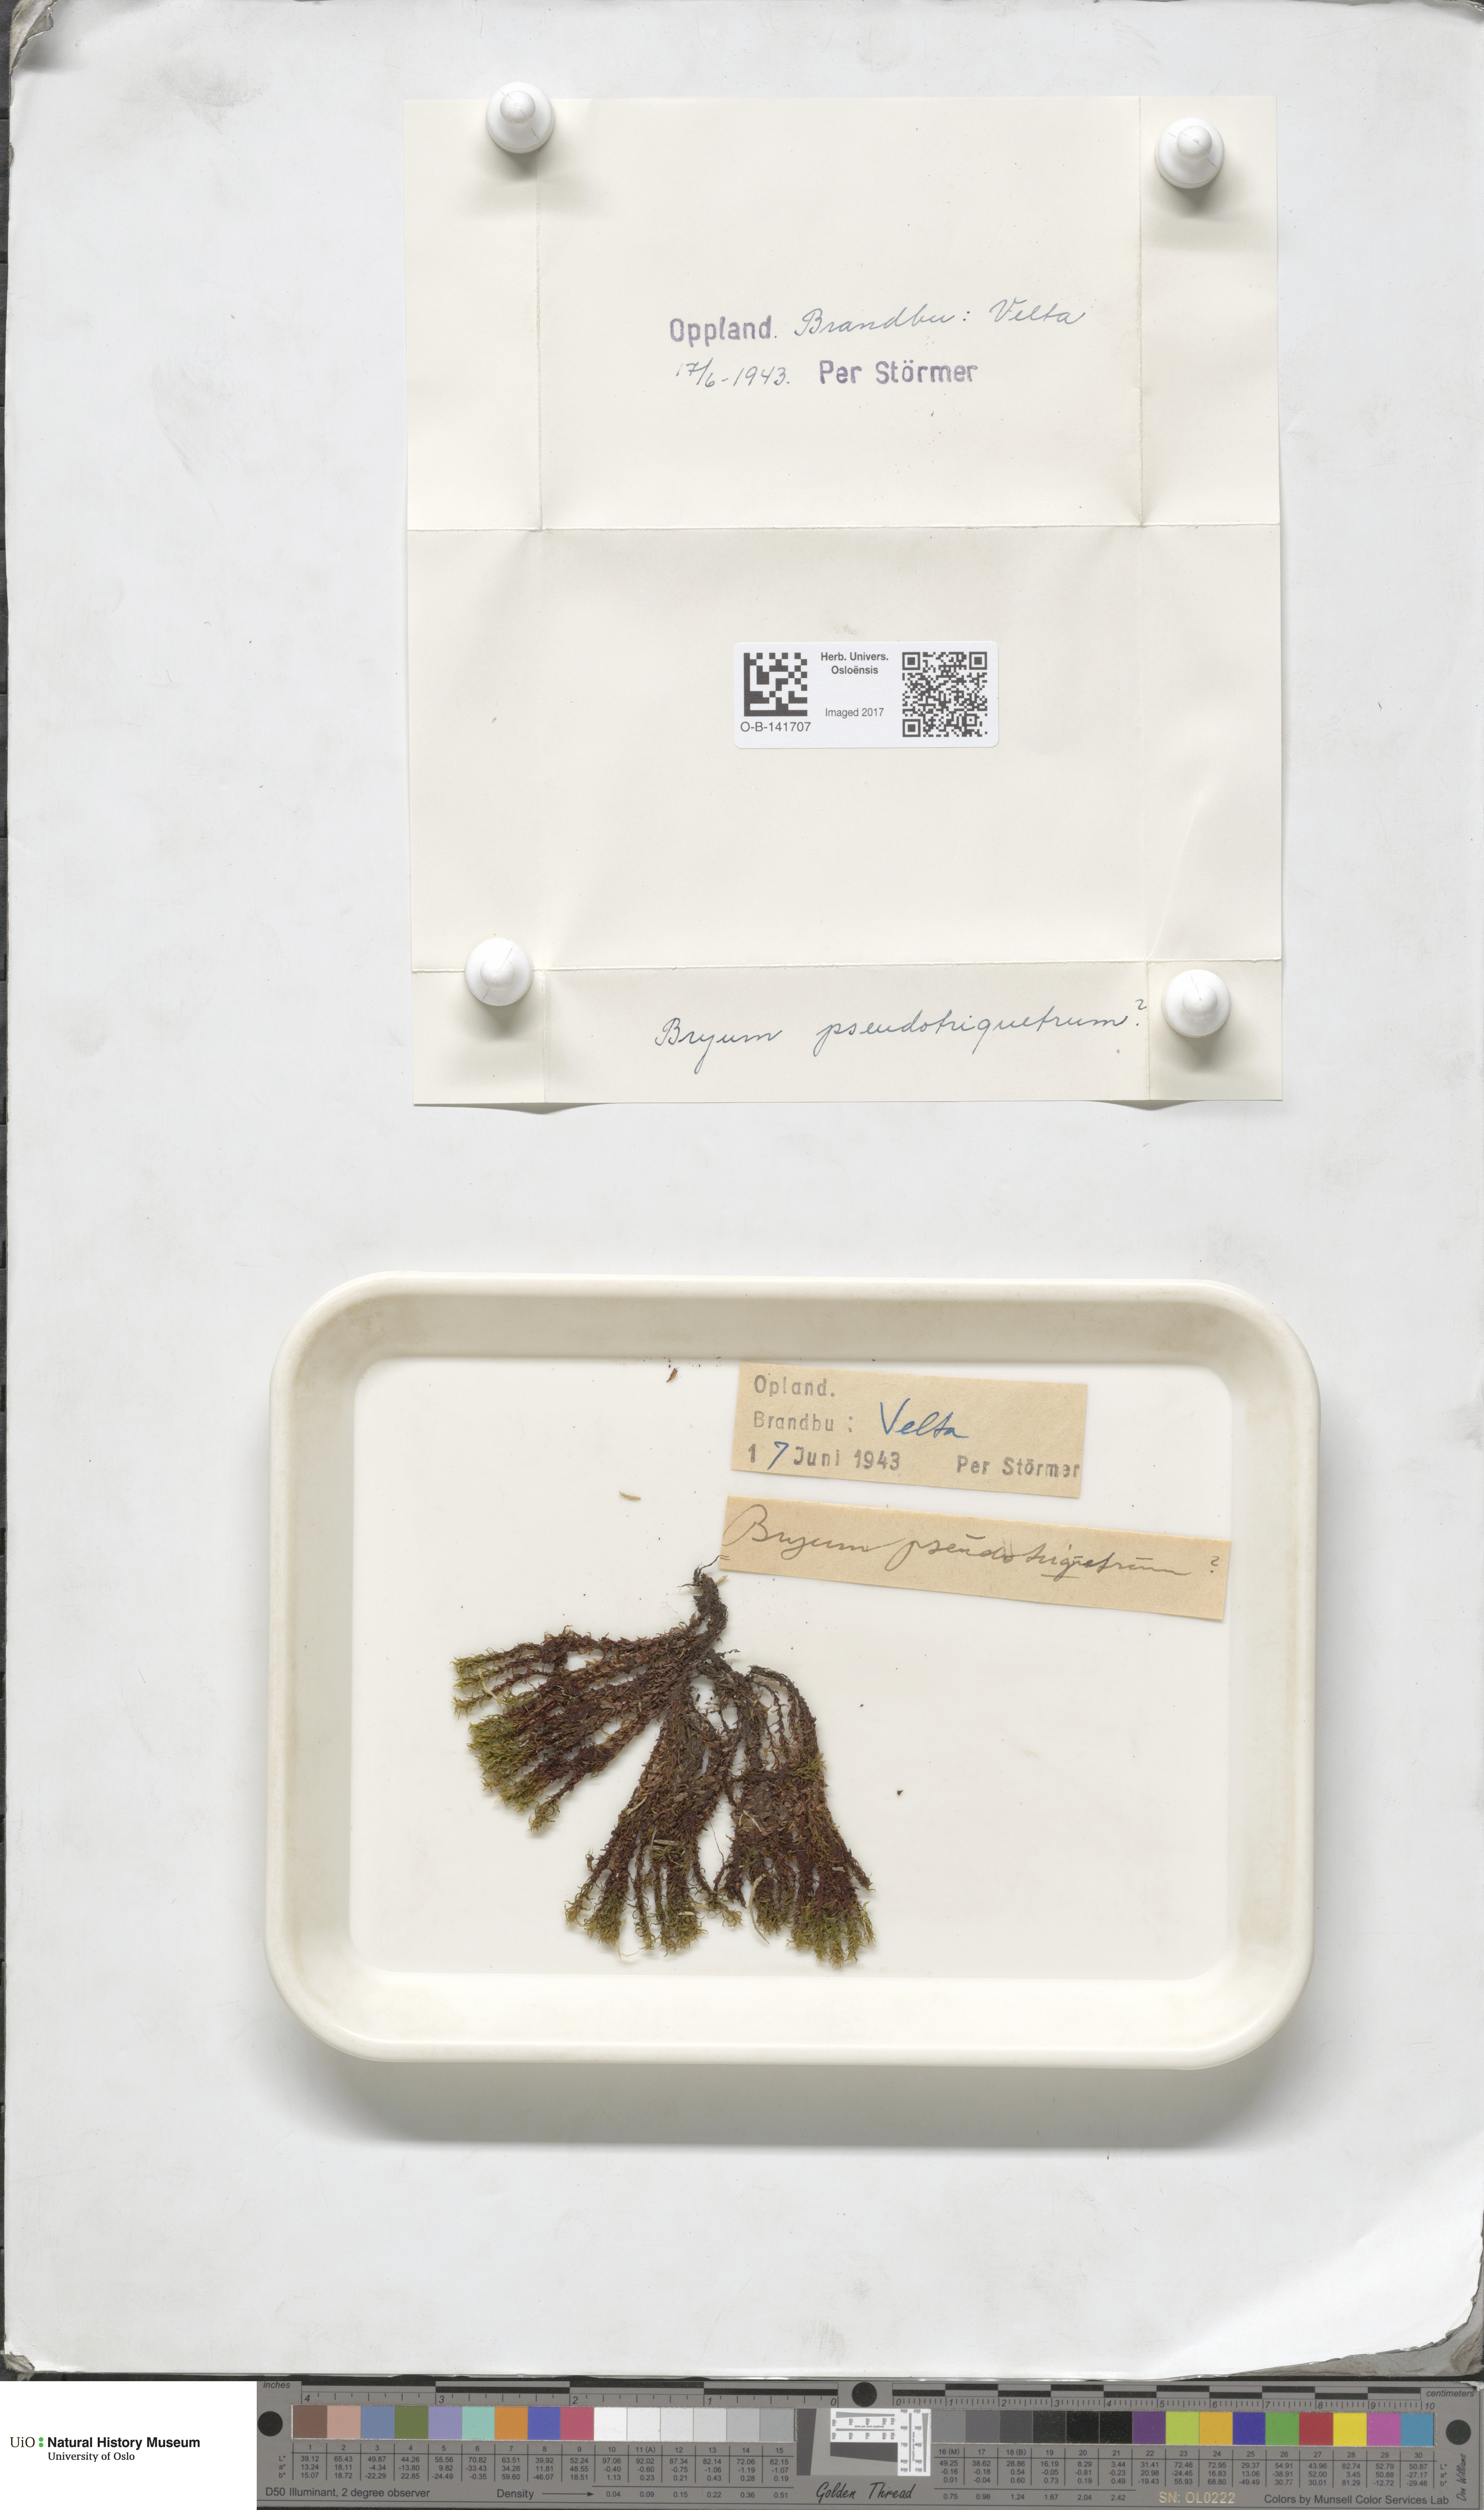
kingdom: Plantae
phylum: Bryophyta
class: Bryopsida
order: Bryales
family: Bryaceae
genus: Ptychostomum
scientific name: Ptychostomum pseudotriquetrum
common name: Long-leaved thread moss
